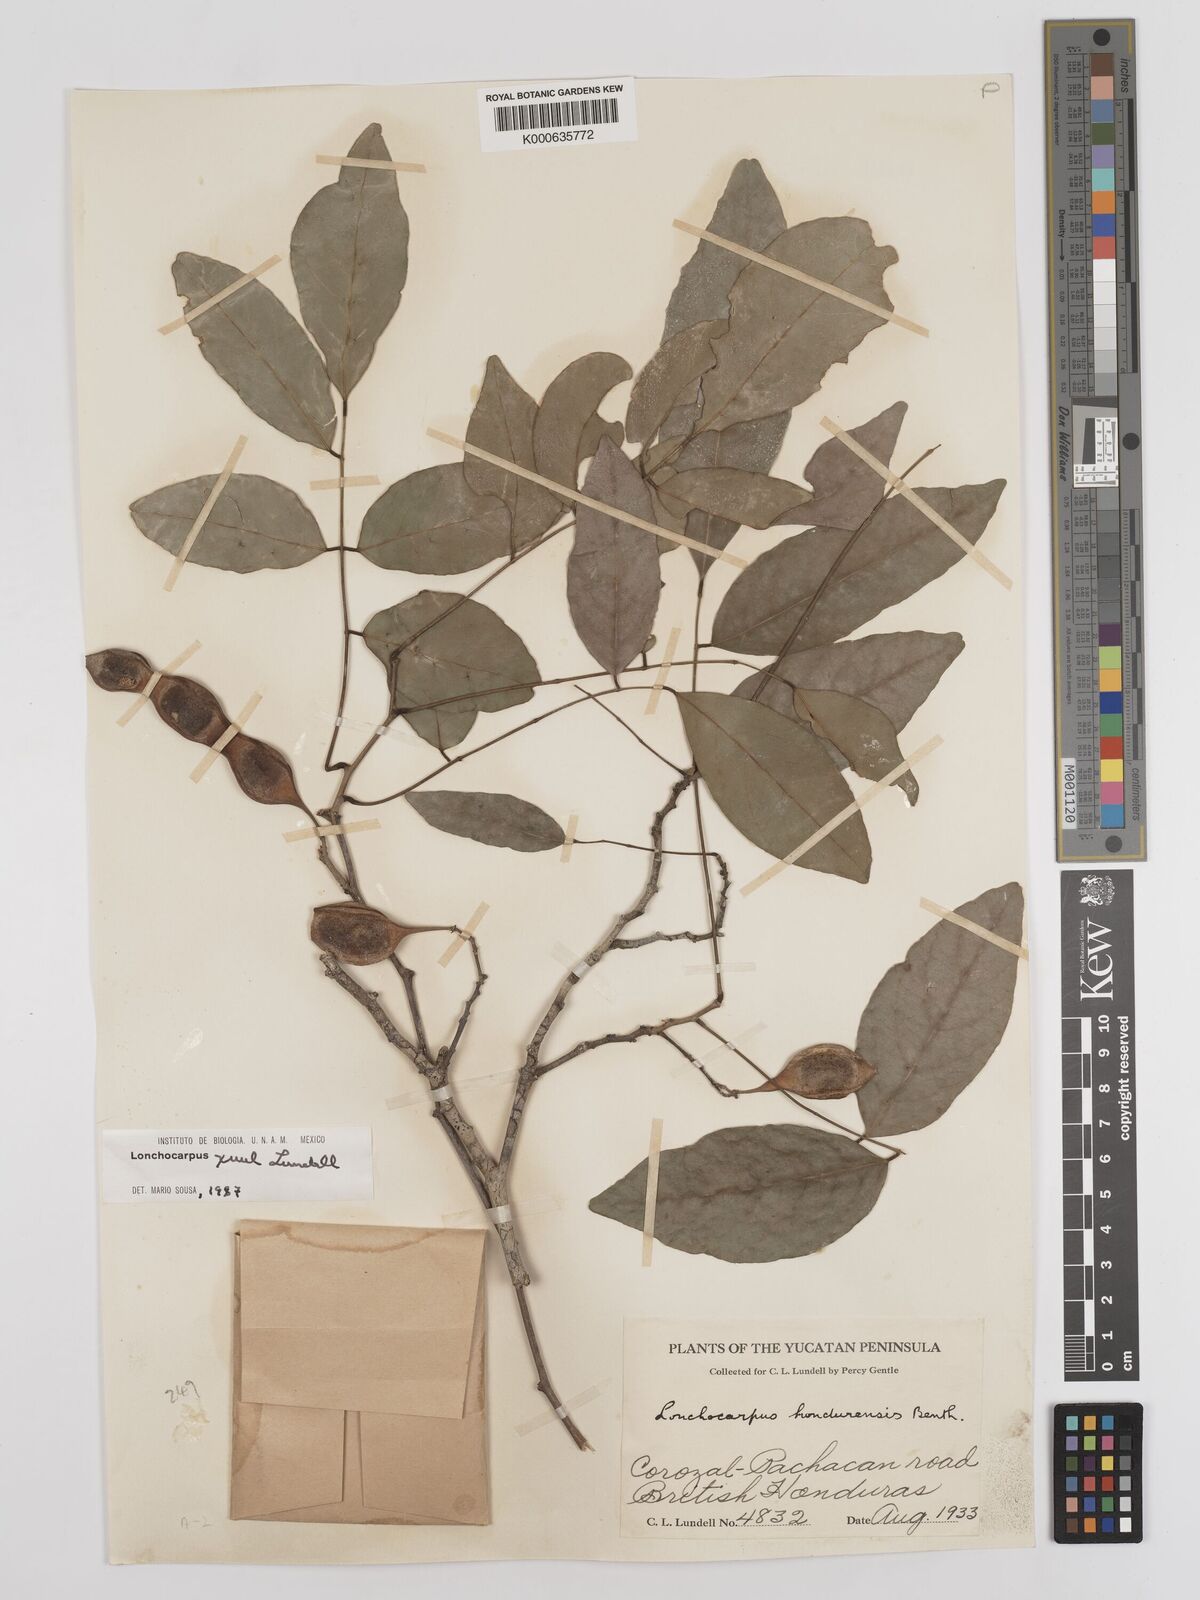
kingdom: Plantae
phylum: Tracheophyta
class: Magnoliopsida
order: Fabales
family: Fabaceae
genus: Lonchocarpus
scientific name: Lonchocarpus guatemalensis
